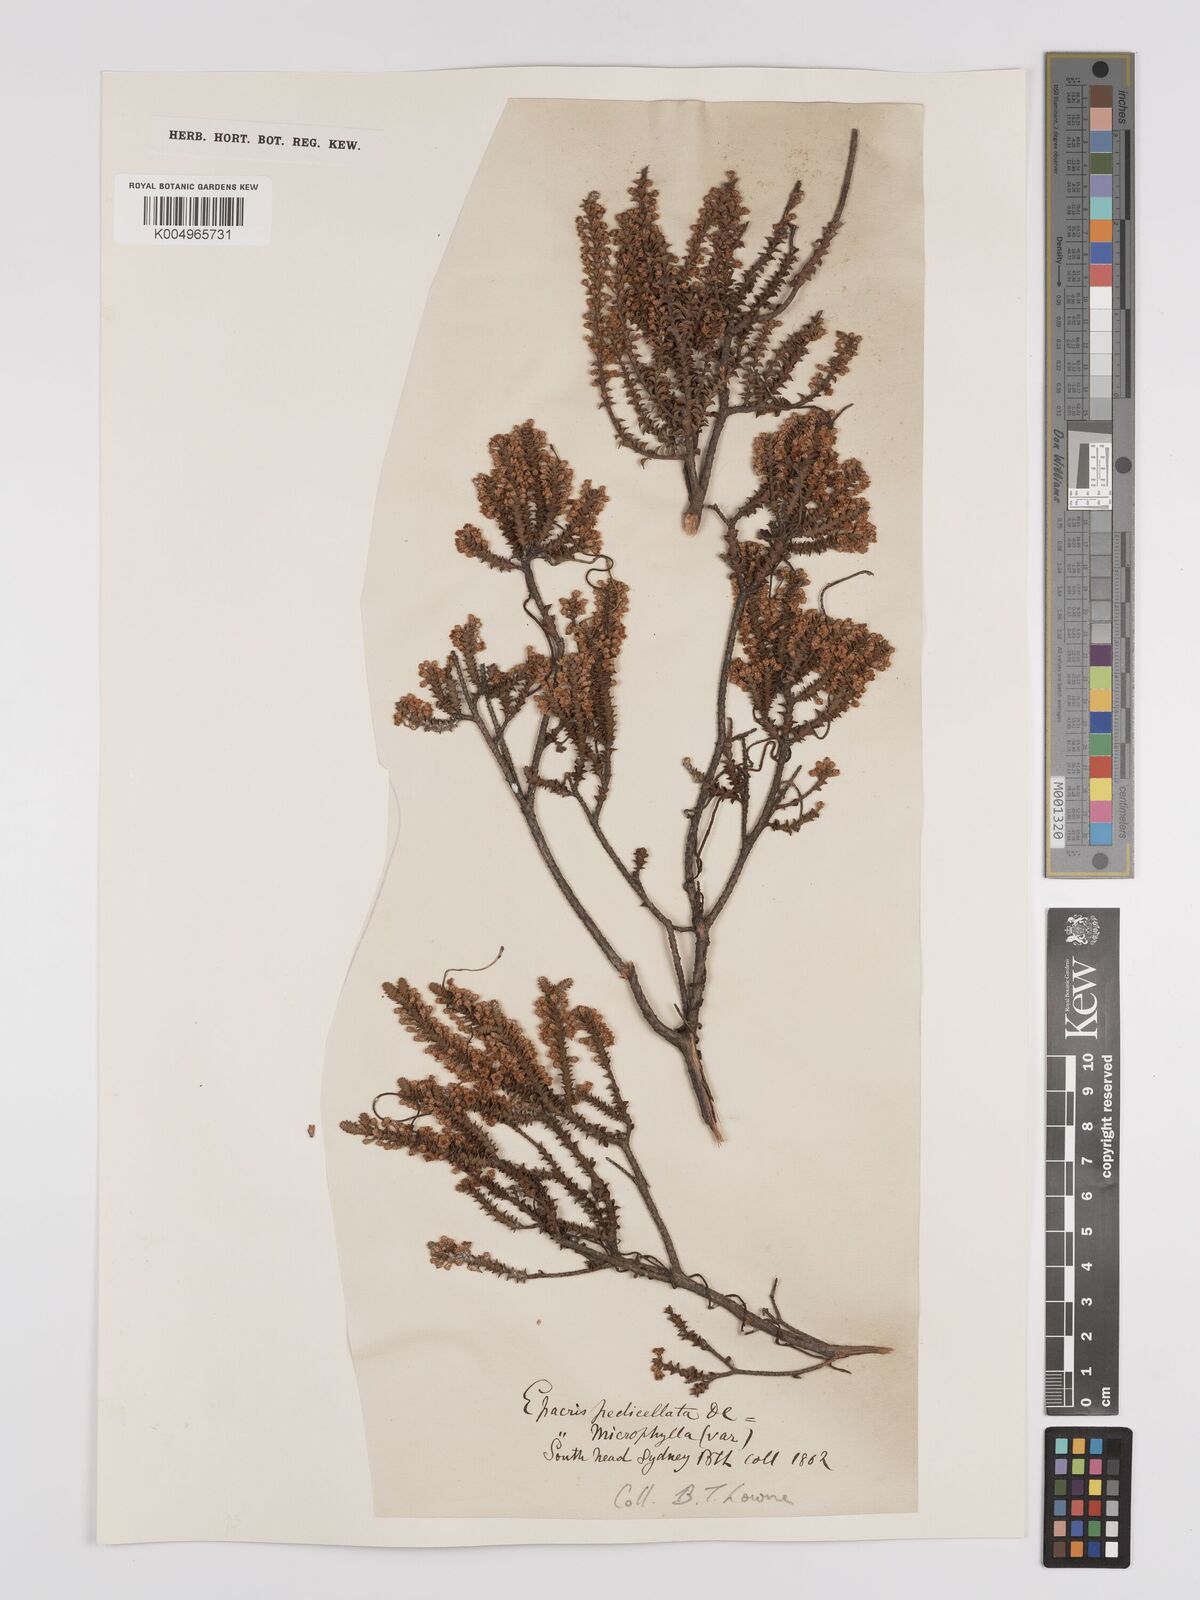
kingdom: Plantae
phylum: Tracheophyta
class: Magnoliopsida
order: Ericales
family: Ericaceae
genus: Epacris
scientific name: Epacris
